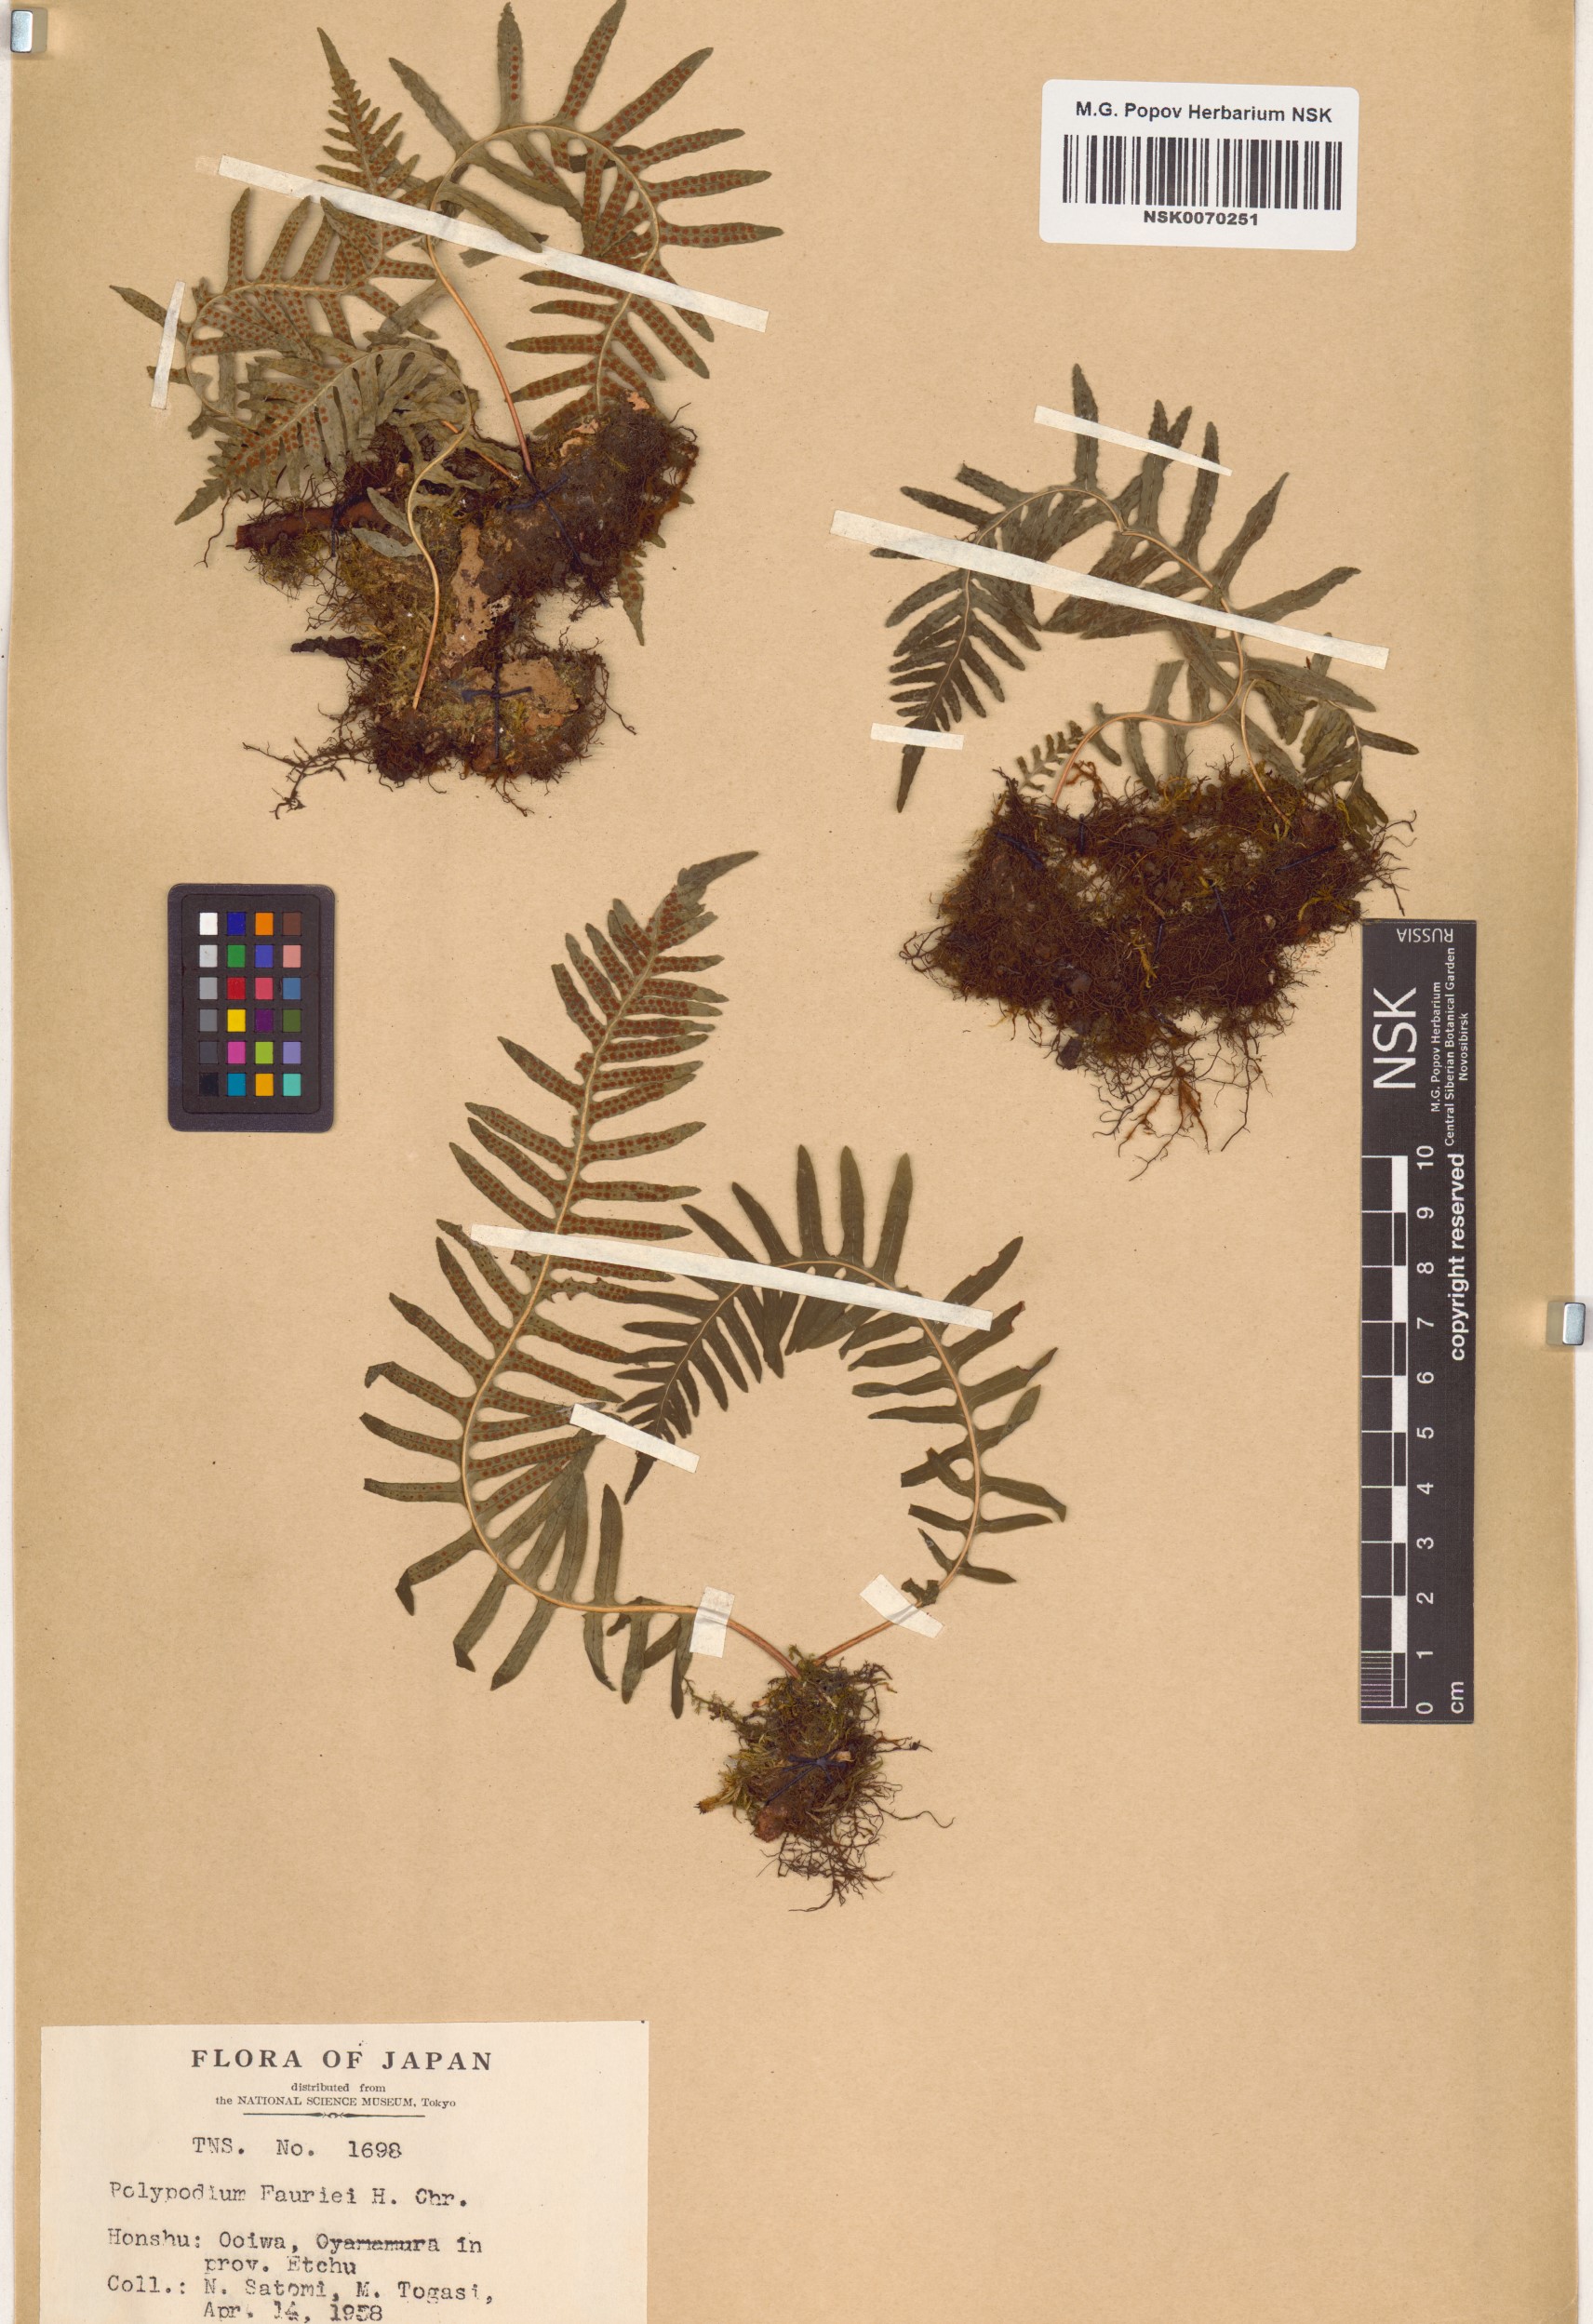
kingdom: Plantae
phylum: Tracheophyta
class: Polypodiopsida
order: Polypodiales
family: Polypodiaceae
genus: Polypodium
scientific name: Polypodium fauriei
